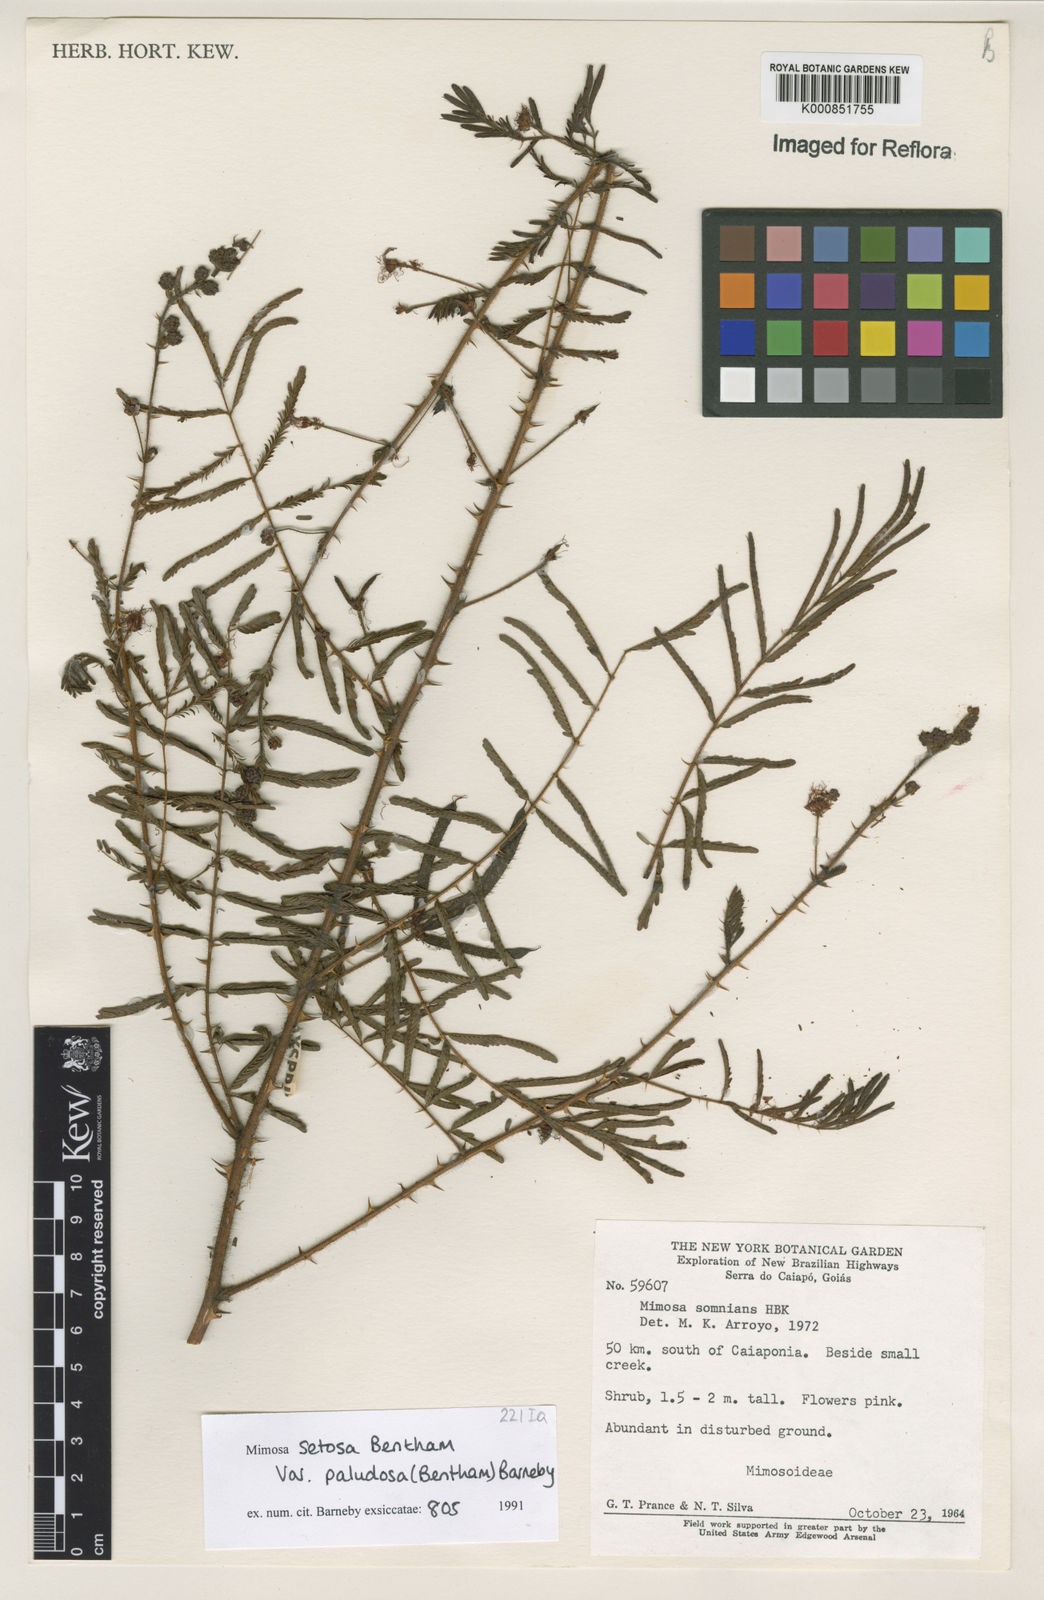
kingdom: Plantae
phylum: Tracheophyta
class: Magnoliopsida
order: Fabales
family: Fabaceae
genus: Mimosa
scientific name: Mimosa paludosa
